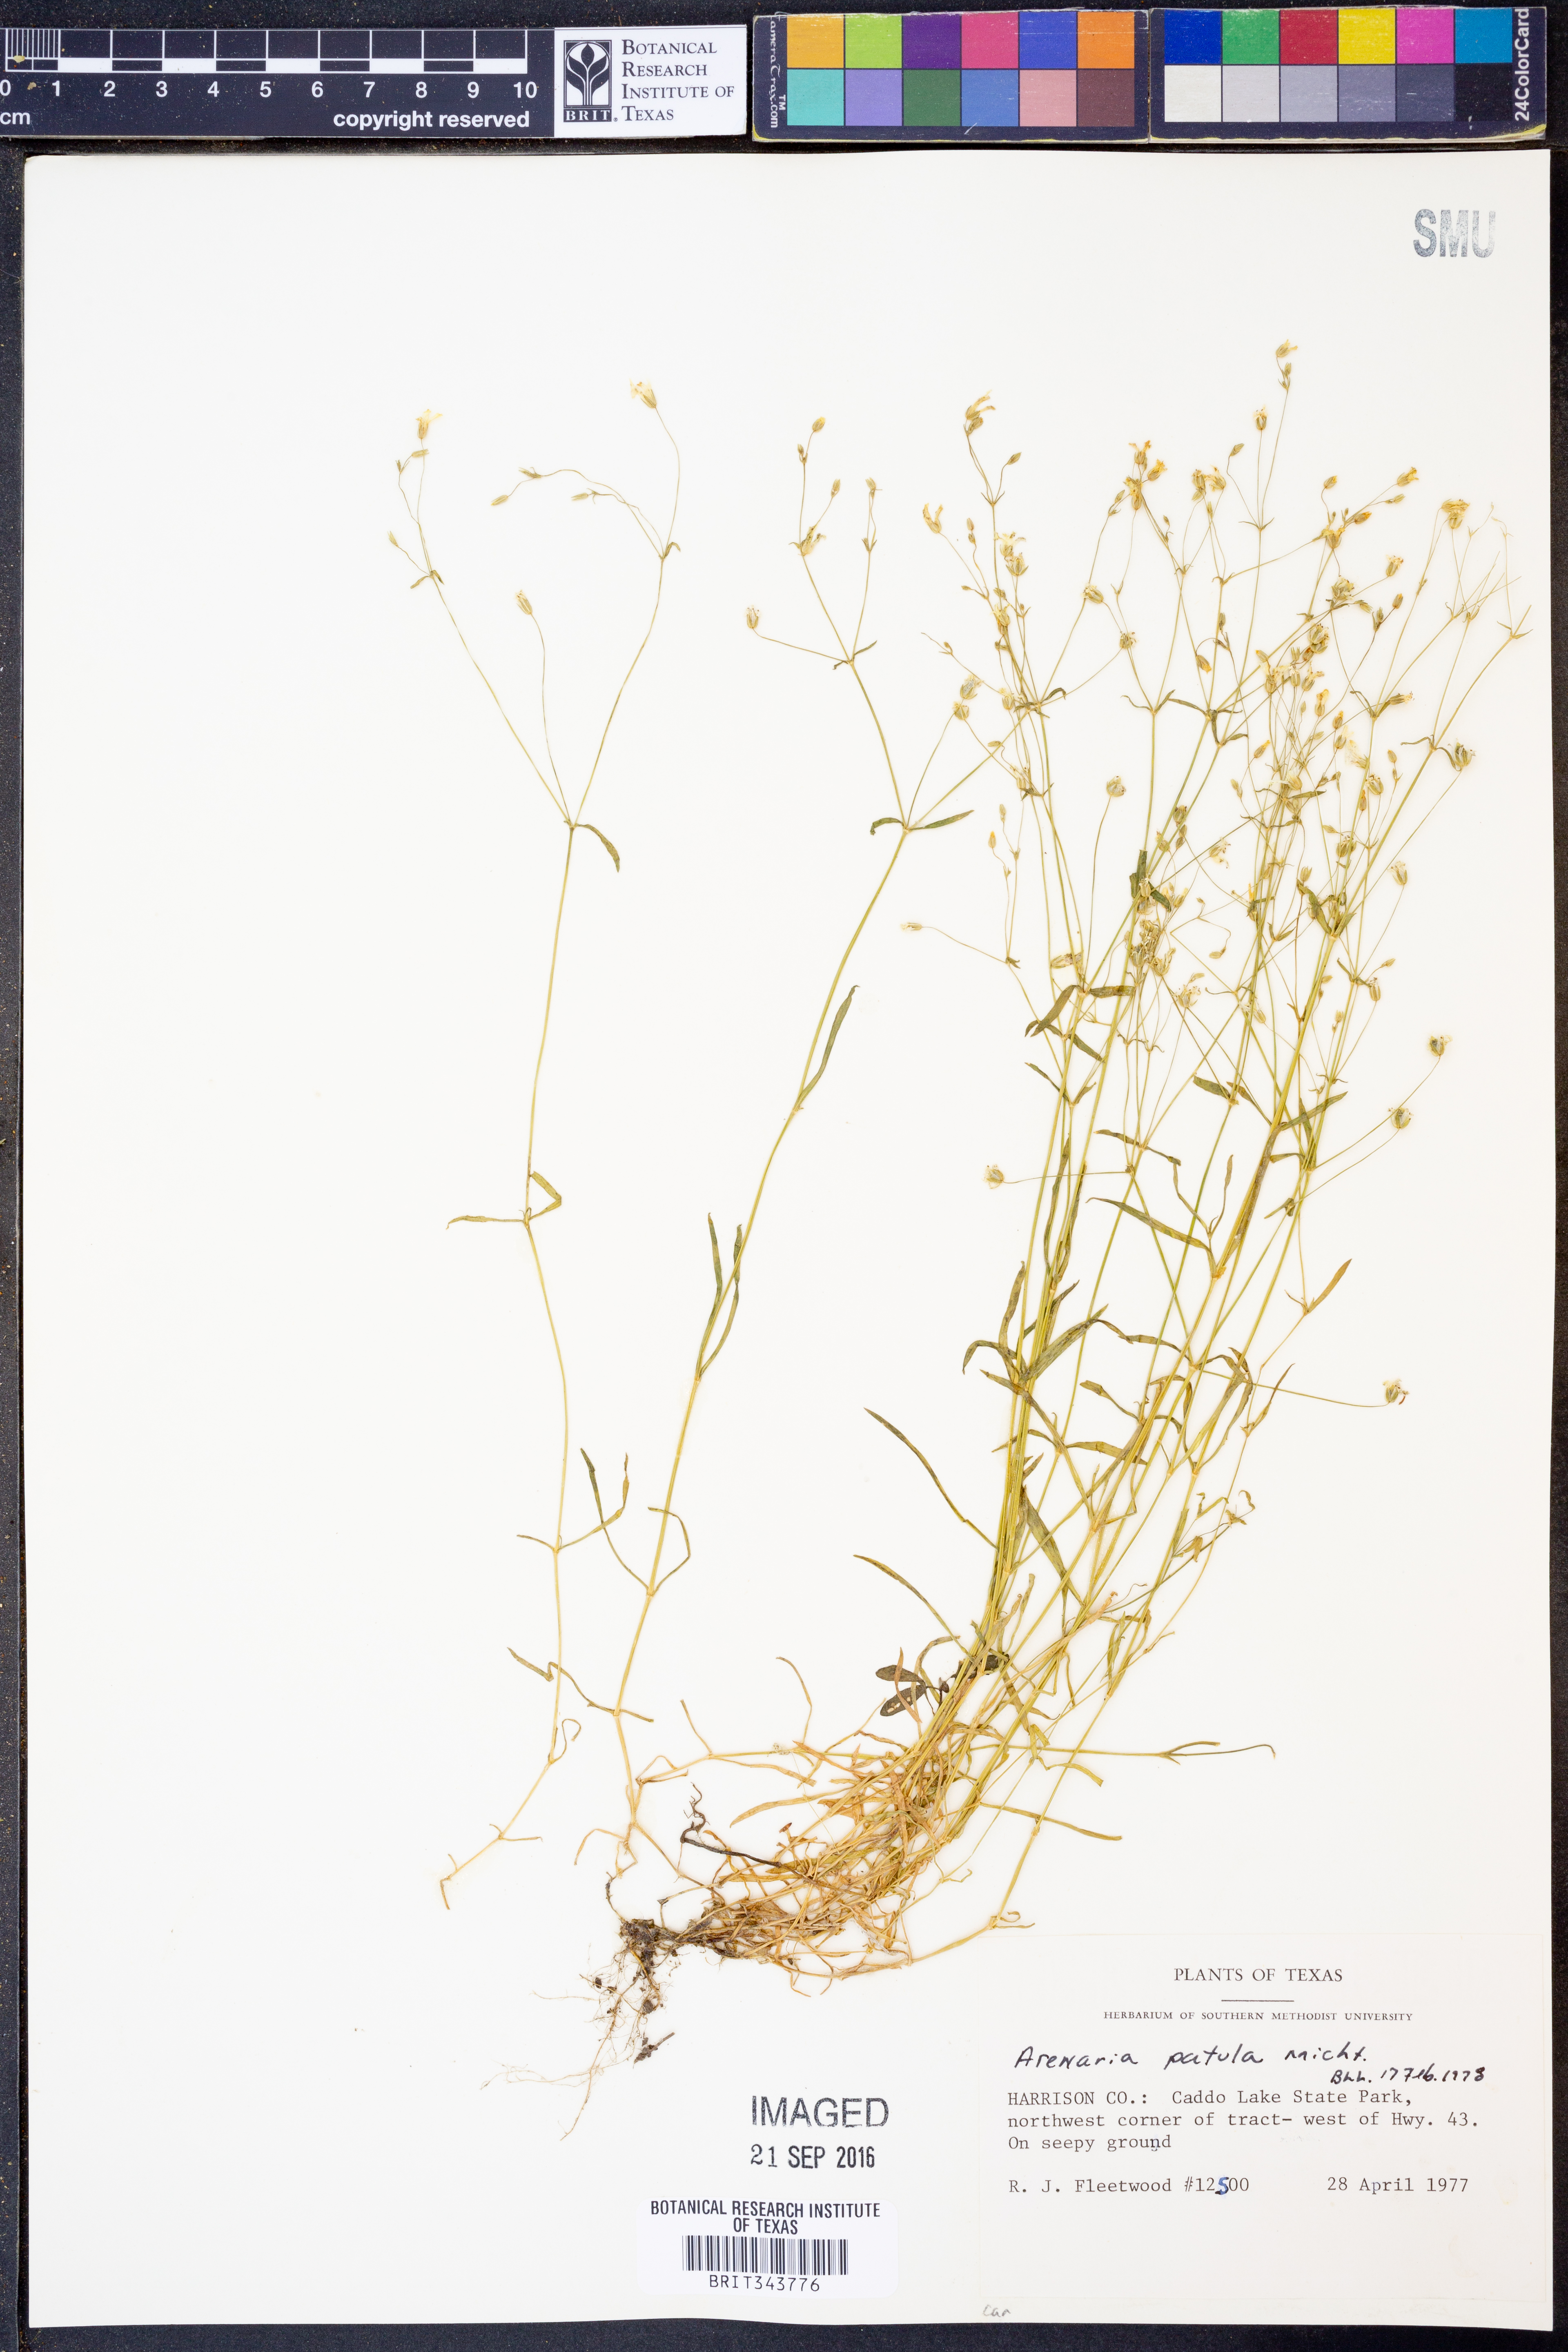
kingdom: Plantae
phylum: Tracheophyta
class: Magnoliopsida
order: Caryophyllales
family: Caryophyllaceae
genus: Mononeuria
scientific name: Mononeuria patula
